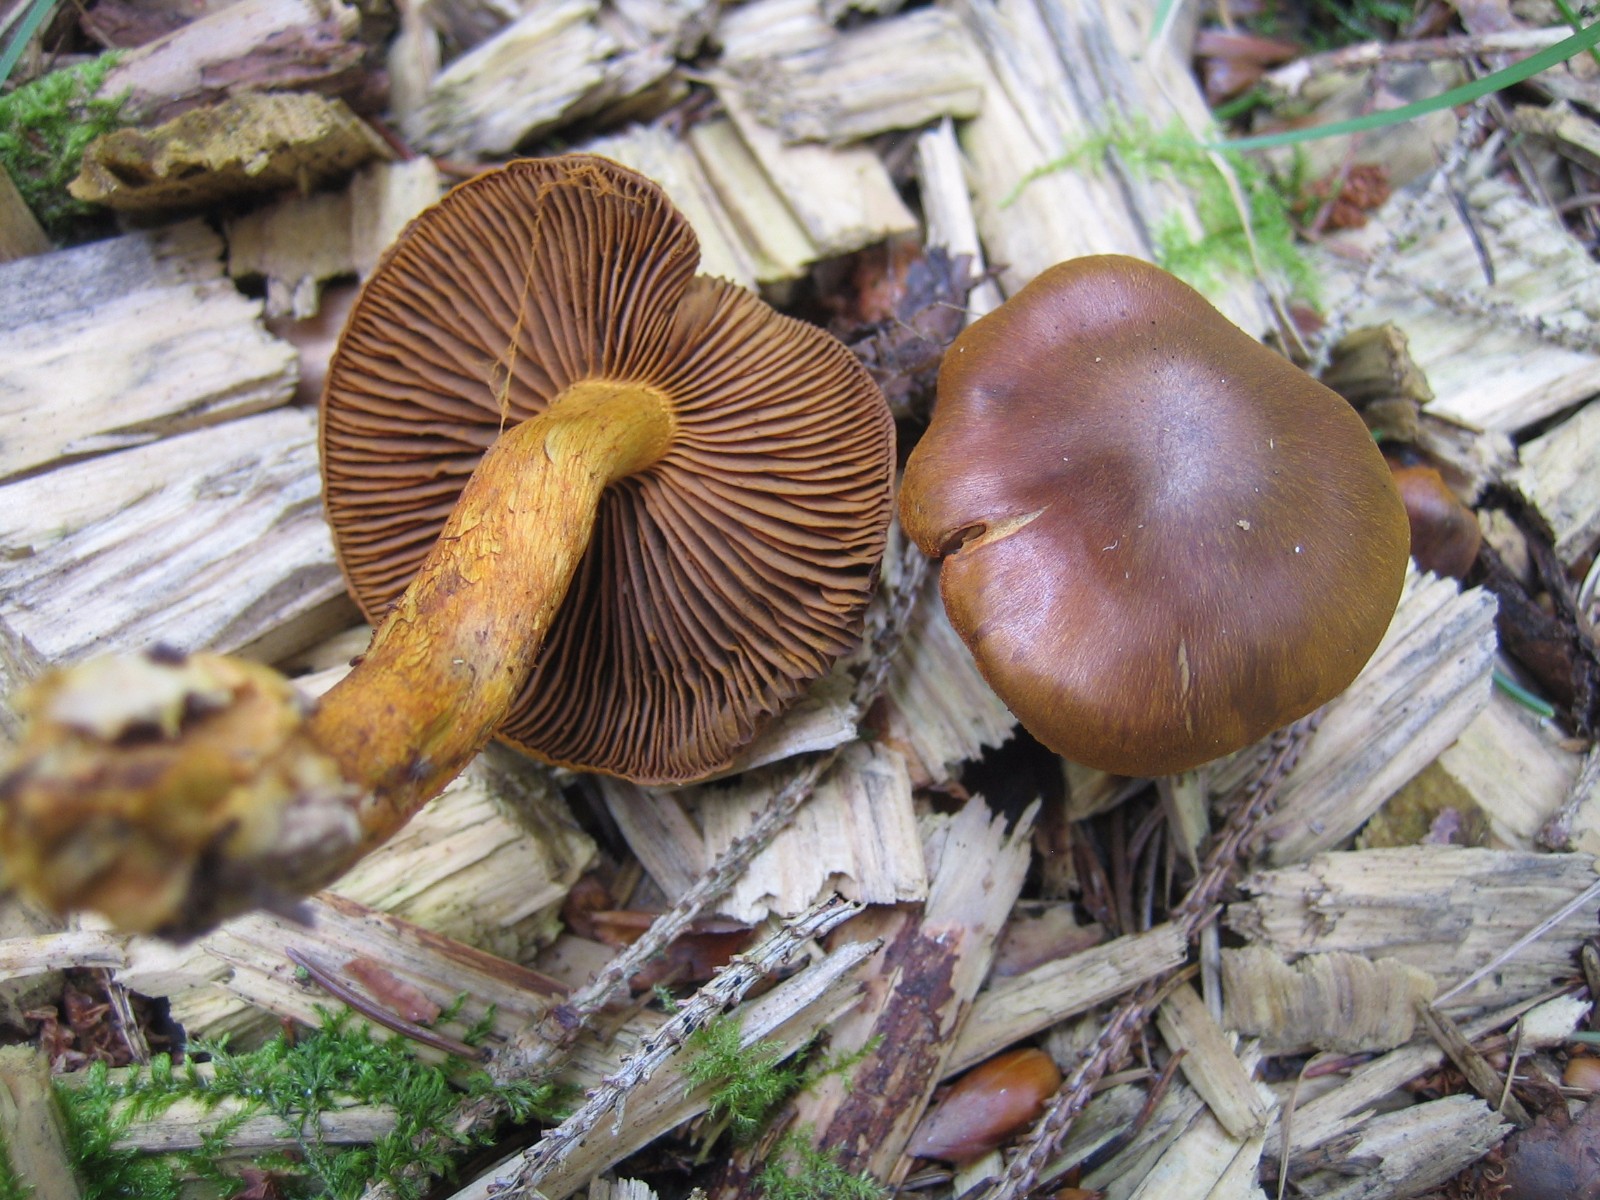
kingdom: Fungi
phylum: Basidiomycota
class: Agaricomycetes
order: Agaricales
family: Cortinariaceae
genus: Cortinarius
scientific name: Cortinarius
